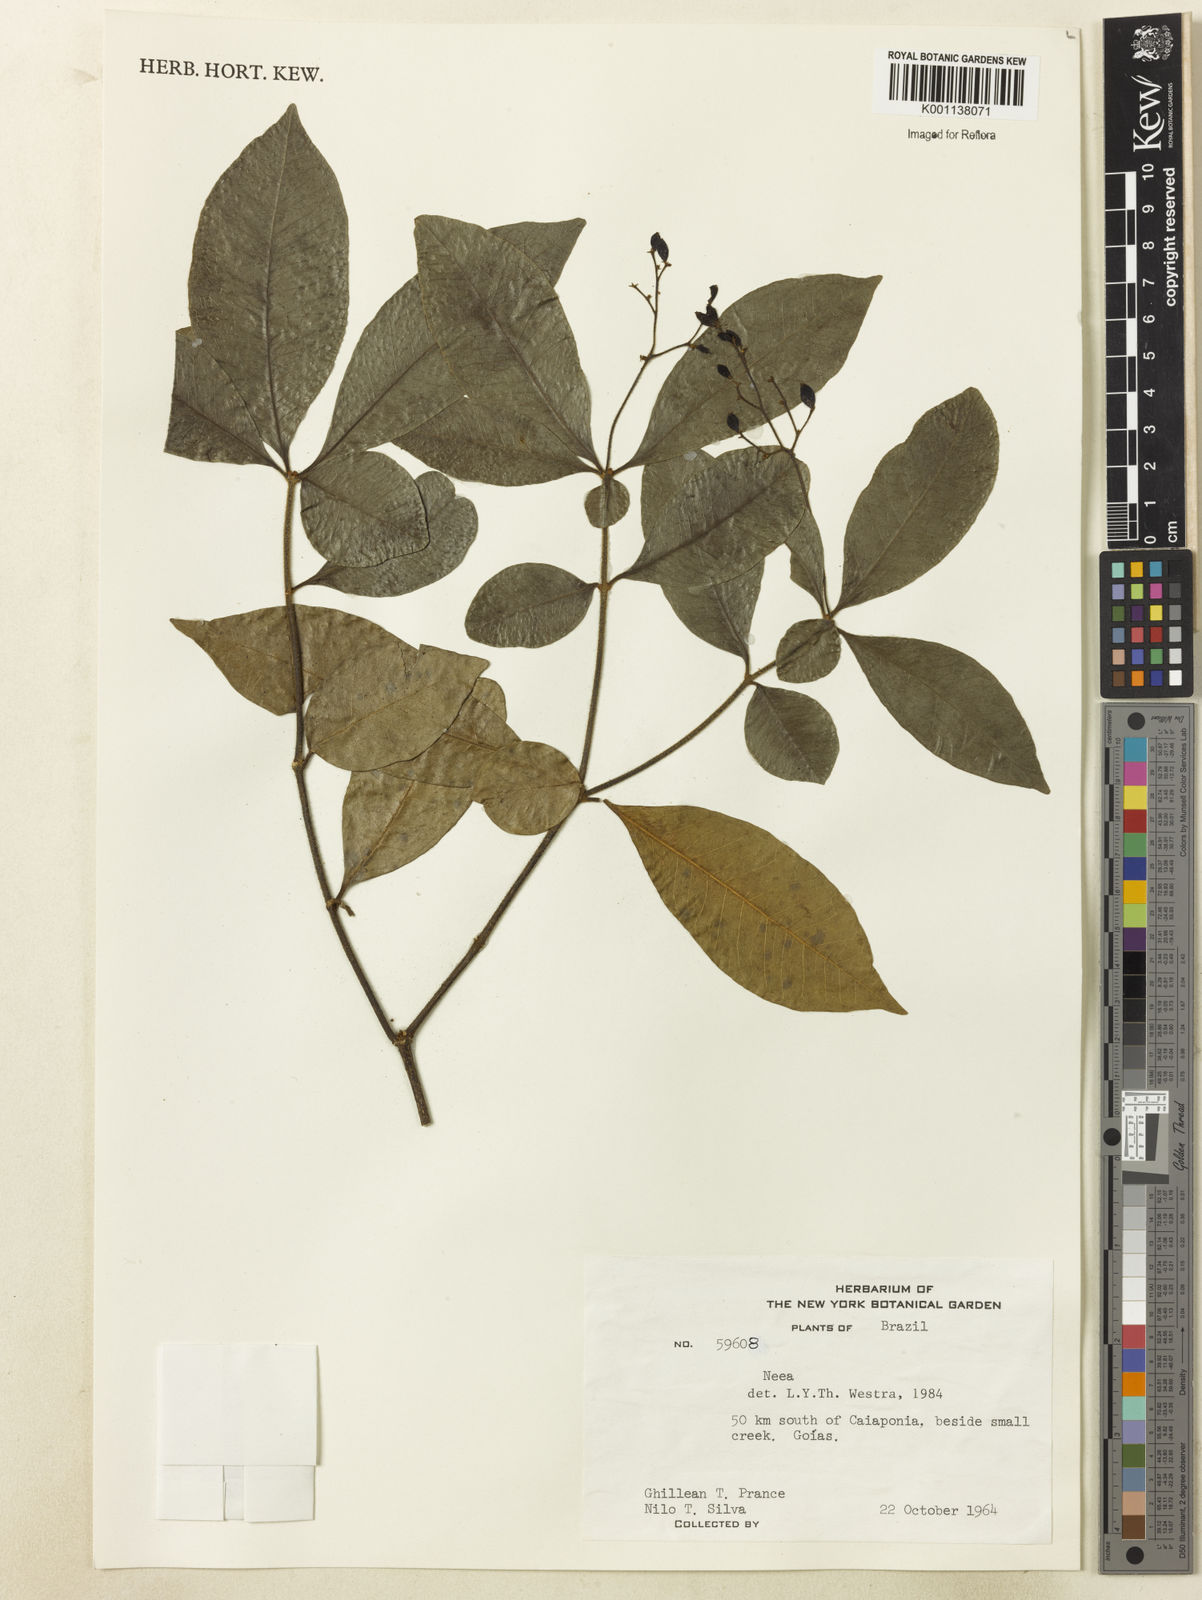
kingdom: Plantae
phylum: Tracheophyta
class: Magnoliopsida
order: Caryophyllales
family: Nyctaginaceae
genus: Neea
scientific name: Neea
